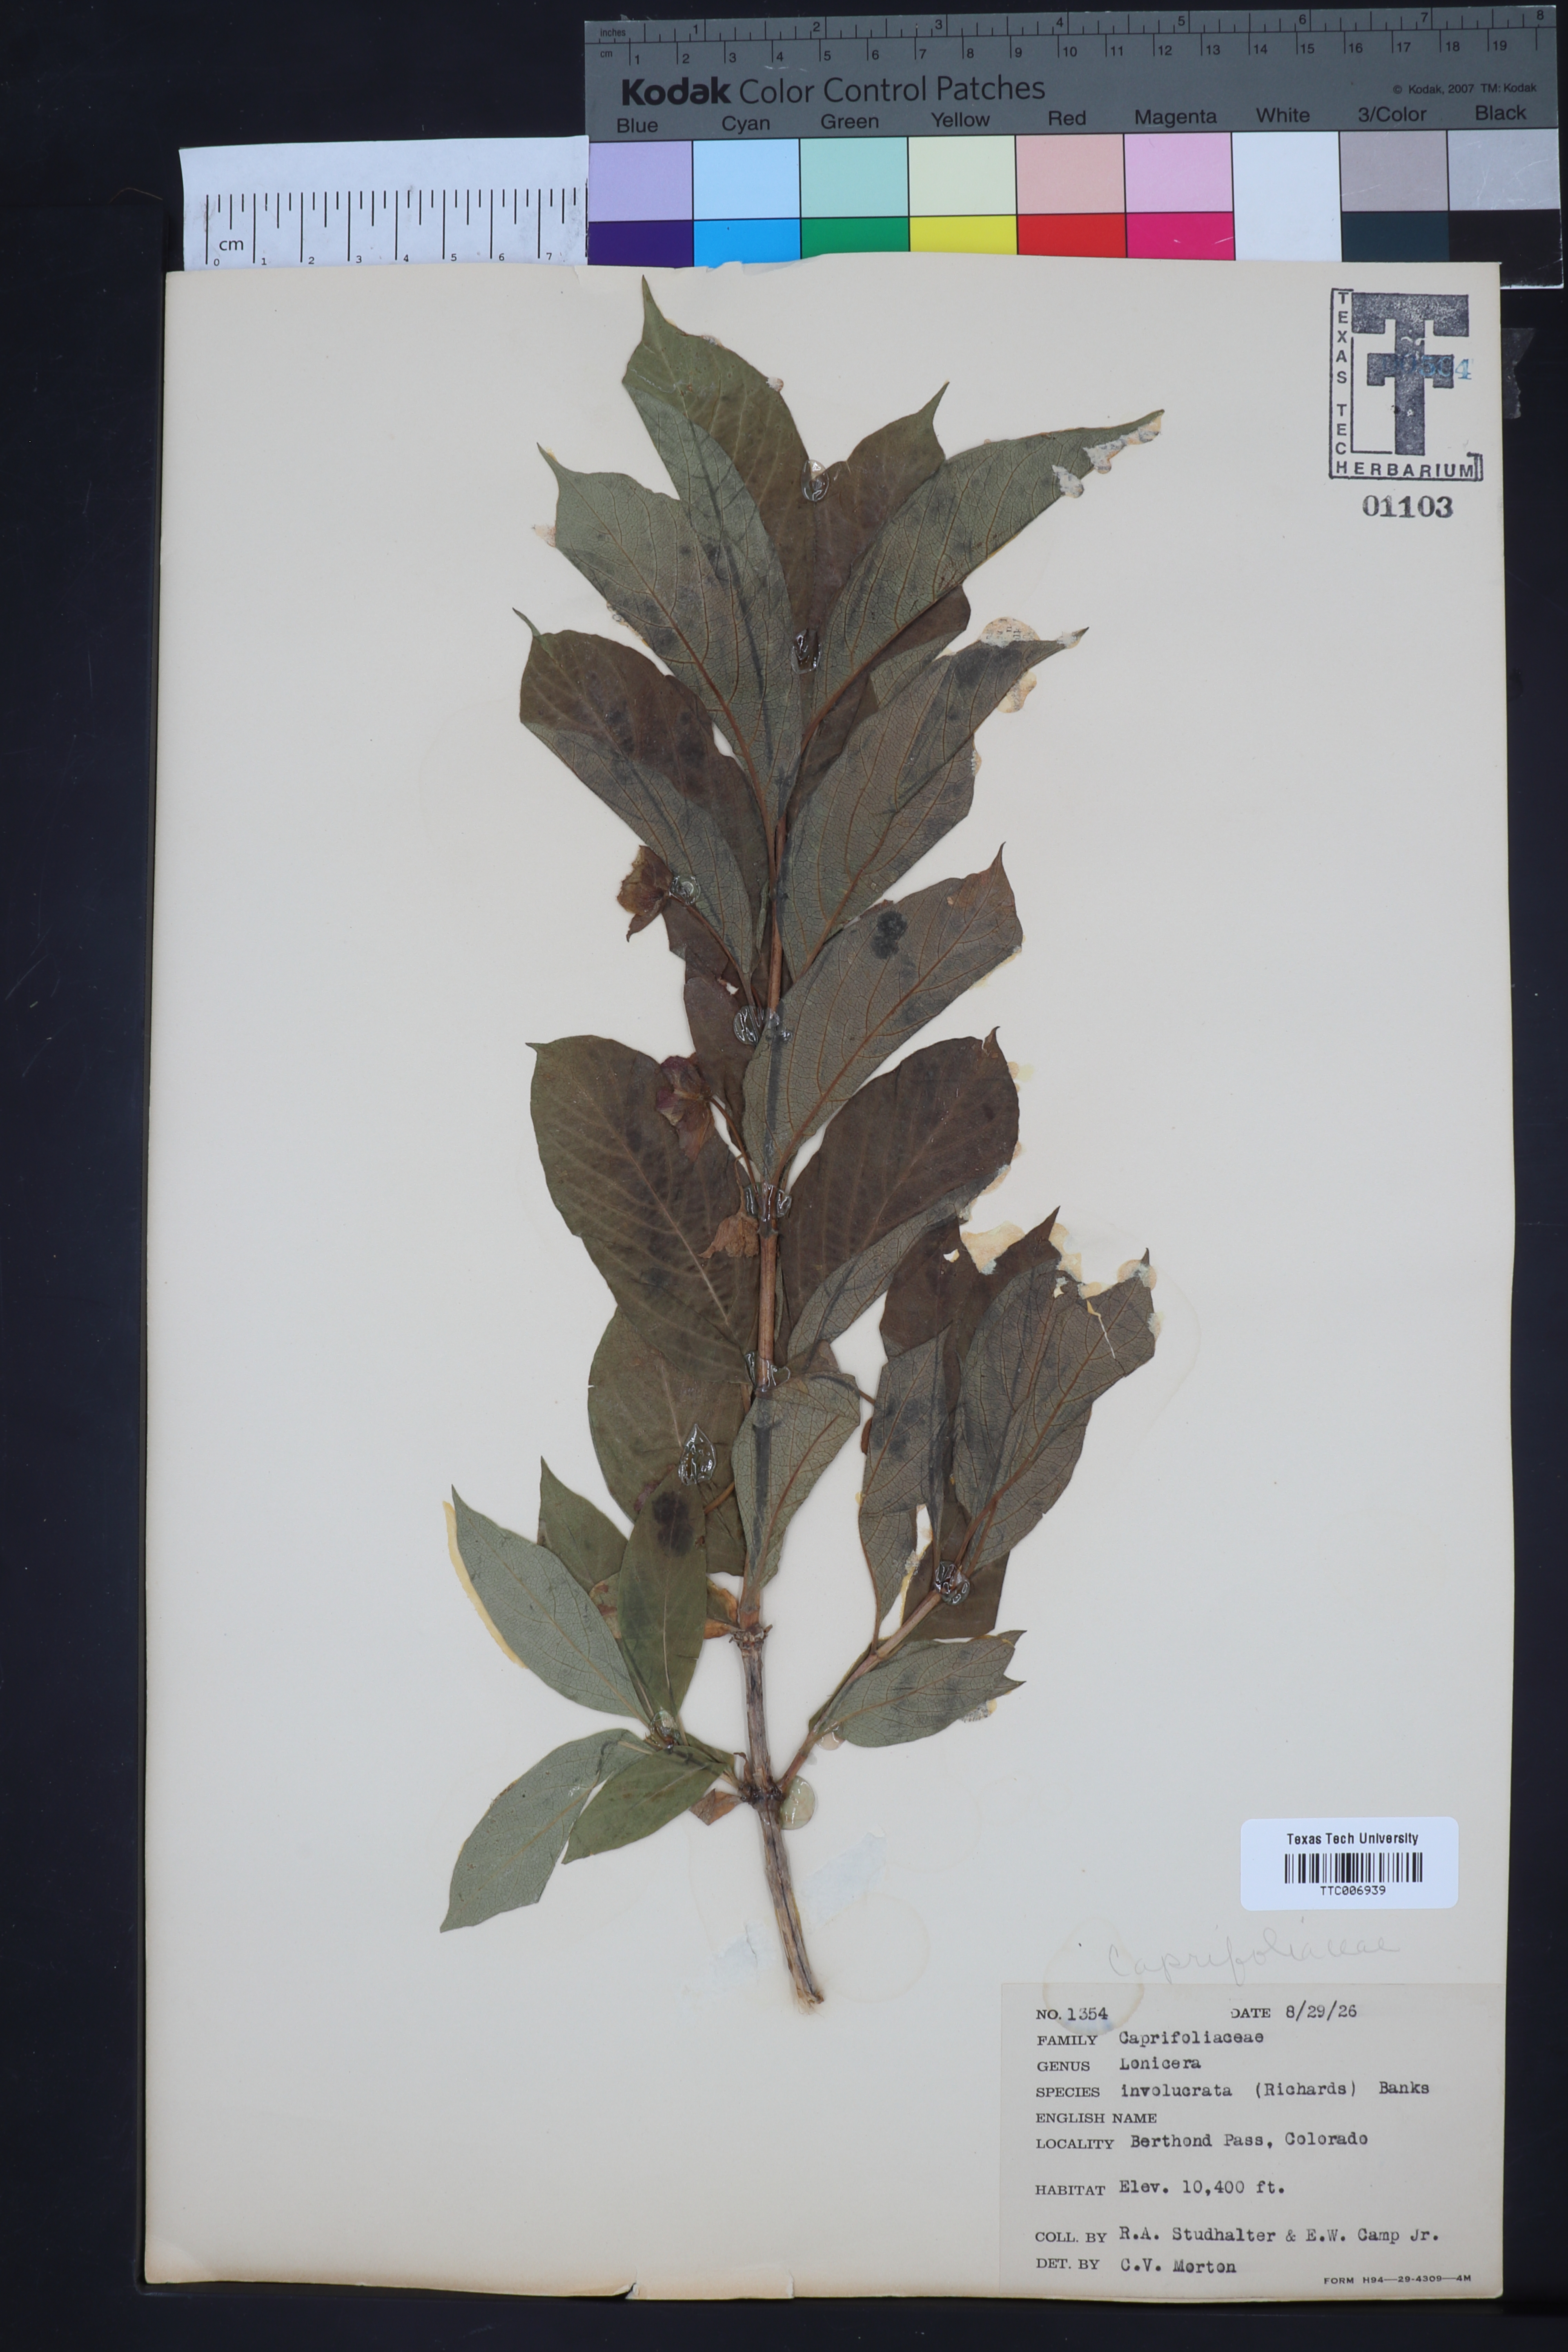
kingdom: Plantae
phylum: Tracheophyta
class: Magnoliopsida
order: Dipsacales
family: Caprifoliaceae
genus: Lonicera
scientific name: Lonicera involucrata
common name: Californian honeysuckle
